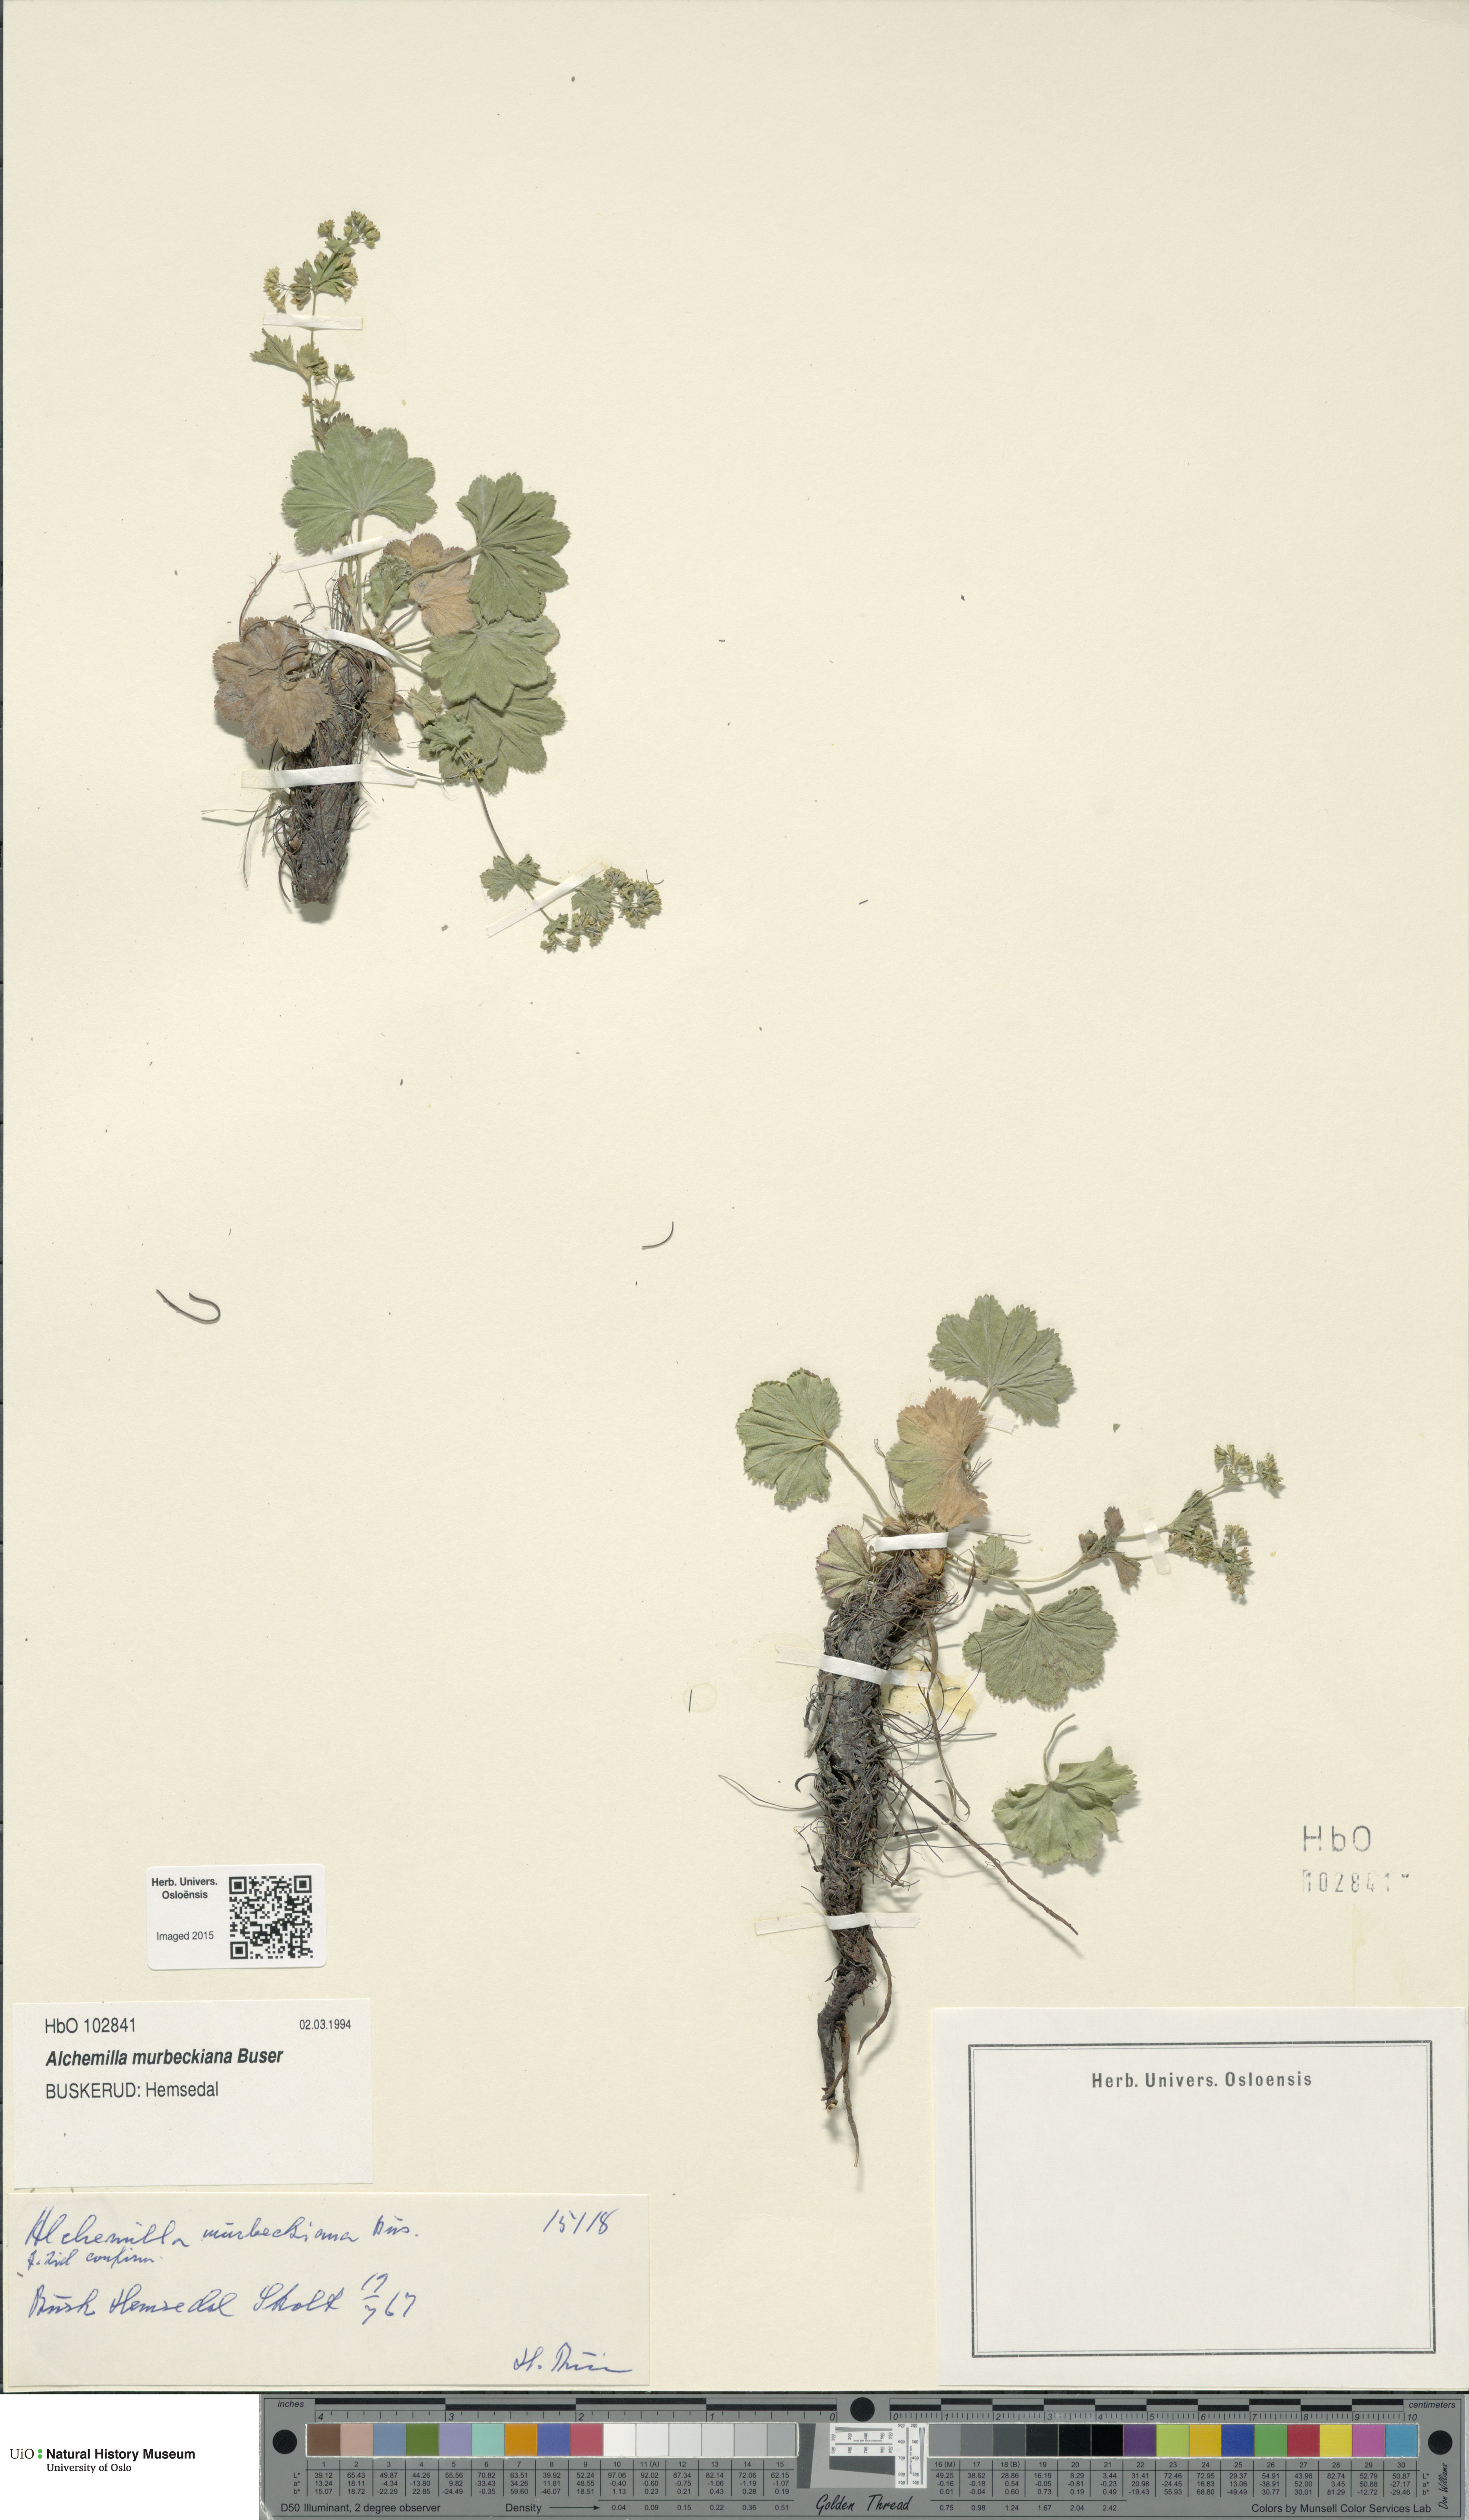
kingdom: Plantae
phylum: Tracheophyta
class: Magnoliopsida
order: Rosales
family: Rosaceae
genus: Alchemilla
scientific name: Alchemilla murbeckiana
